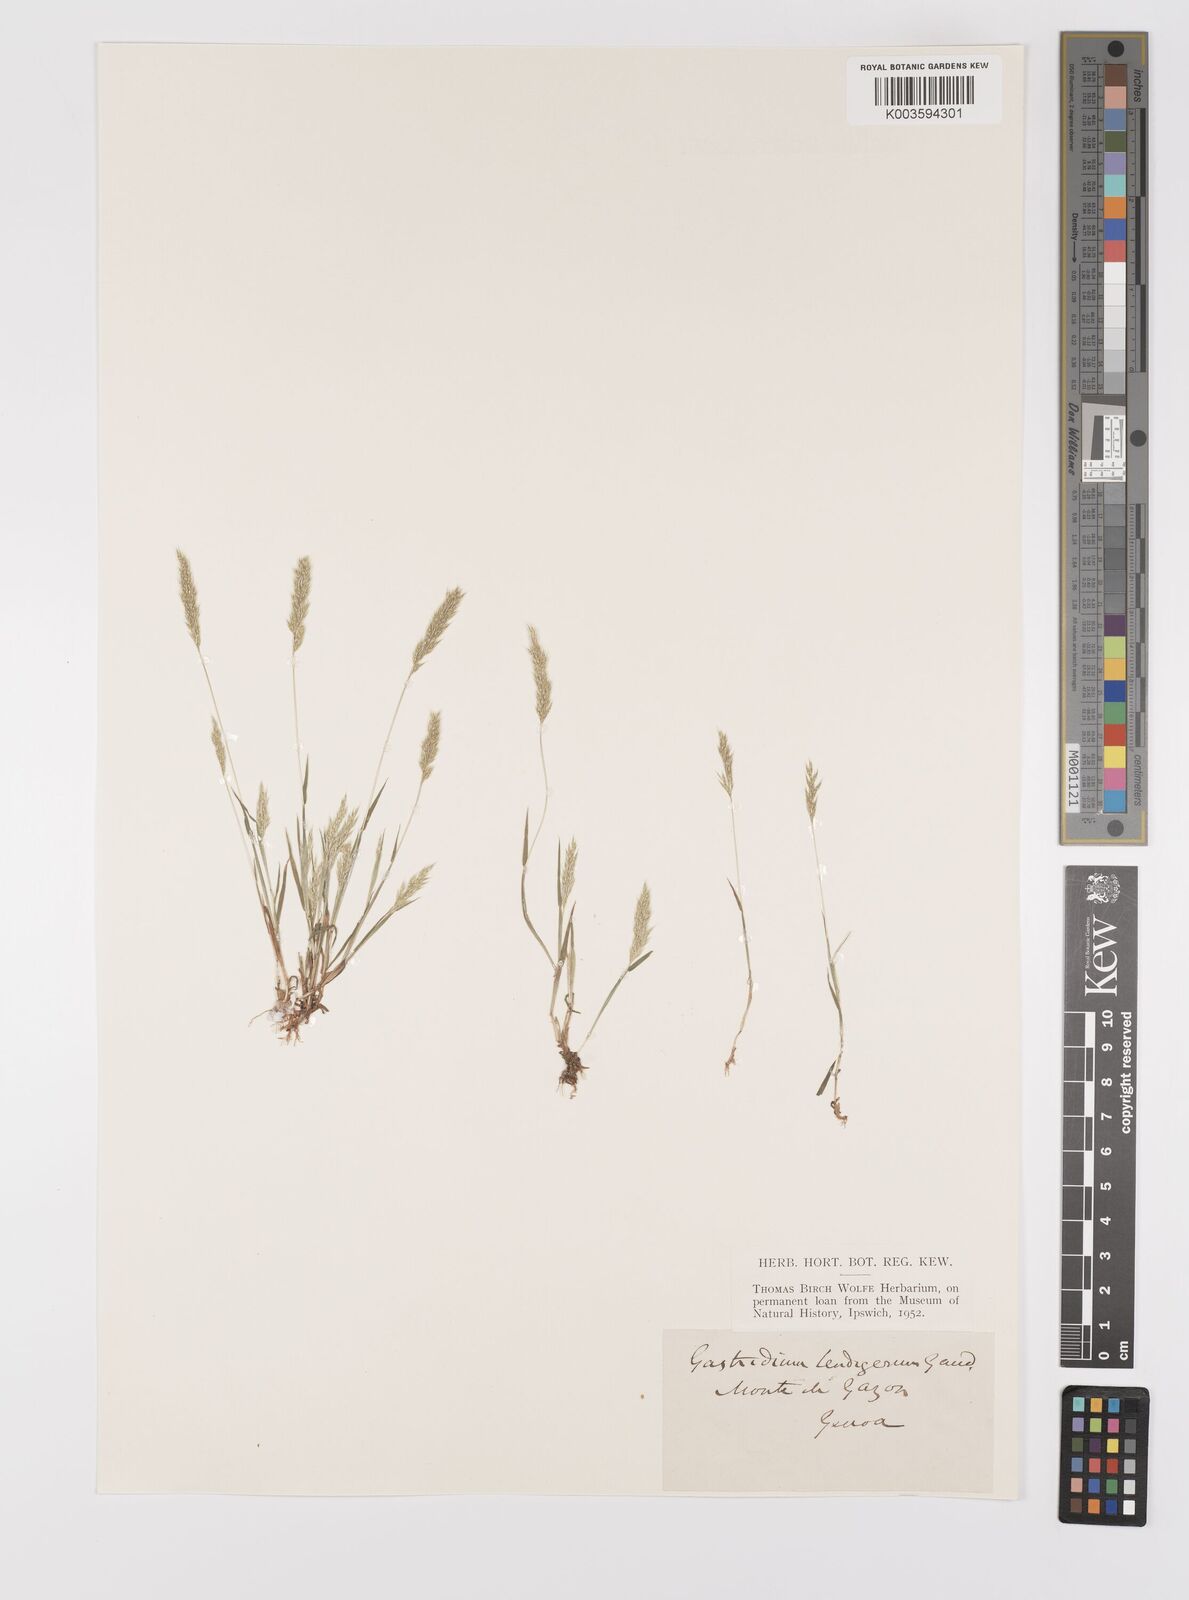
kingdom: Plantae
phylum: Tracheophyta
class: Liliopsida
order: Poales
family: Poaceae
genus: Gastridium
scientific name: Gastridium ventricosum
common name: Nit-grass
